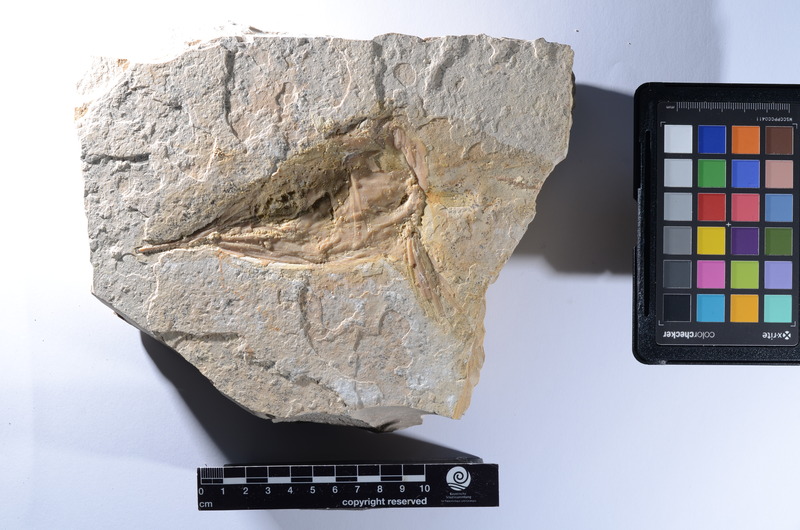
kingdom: Animalia
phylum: Chordata
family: Aspidorhynchidae
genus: Aspidorhynchus
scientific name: Aspidorhynchus
